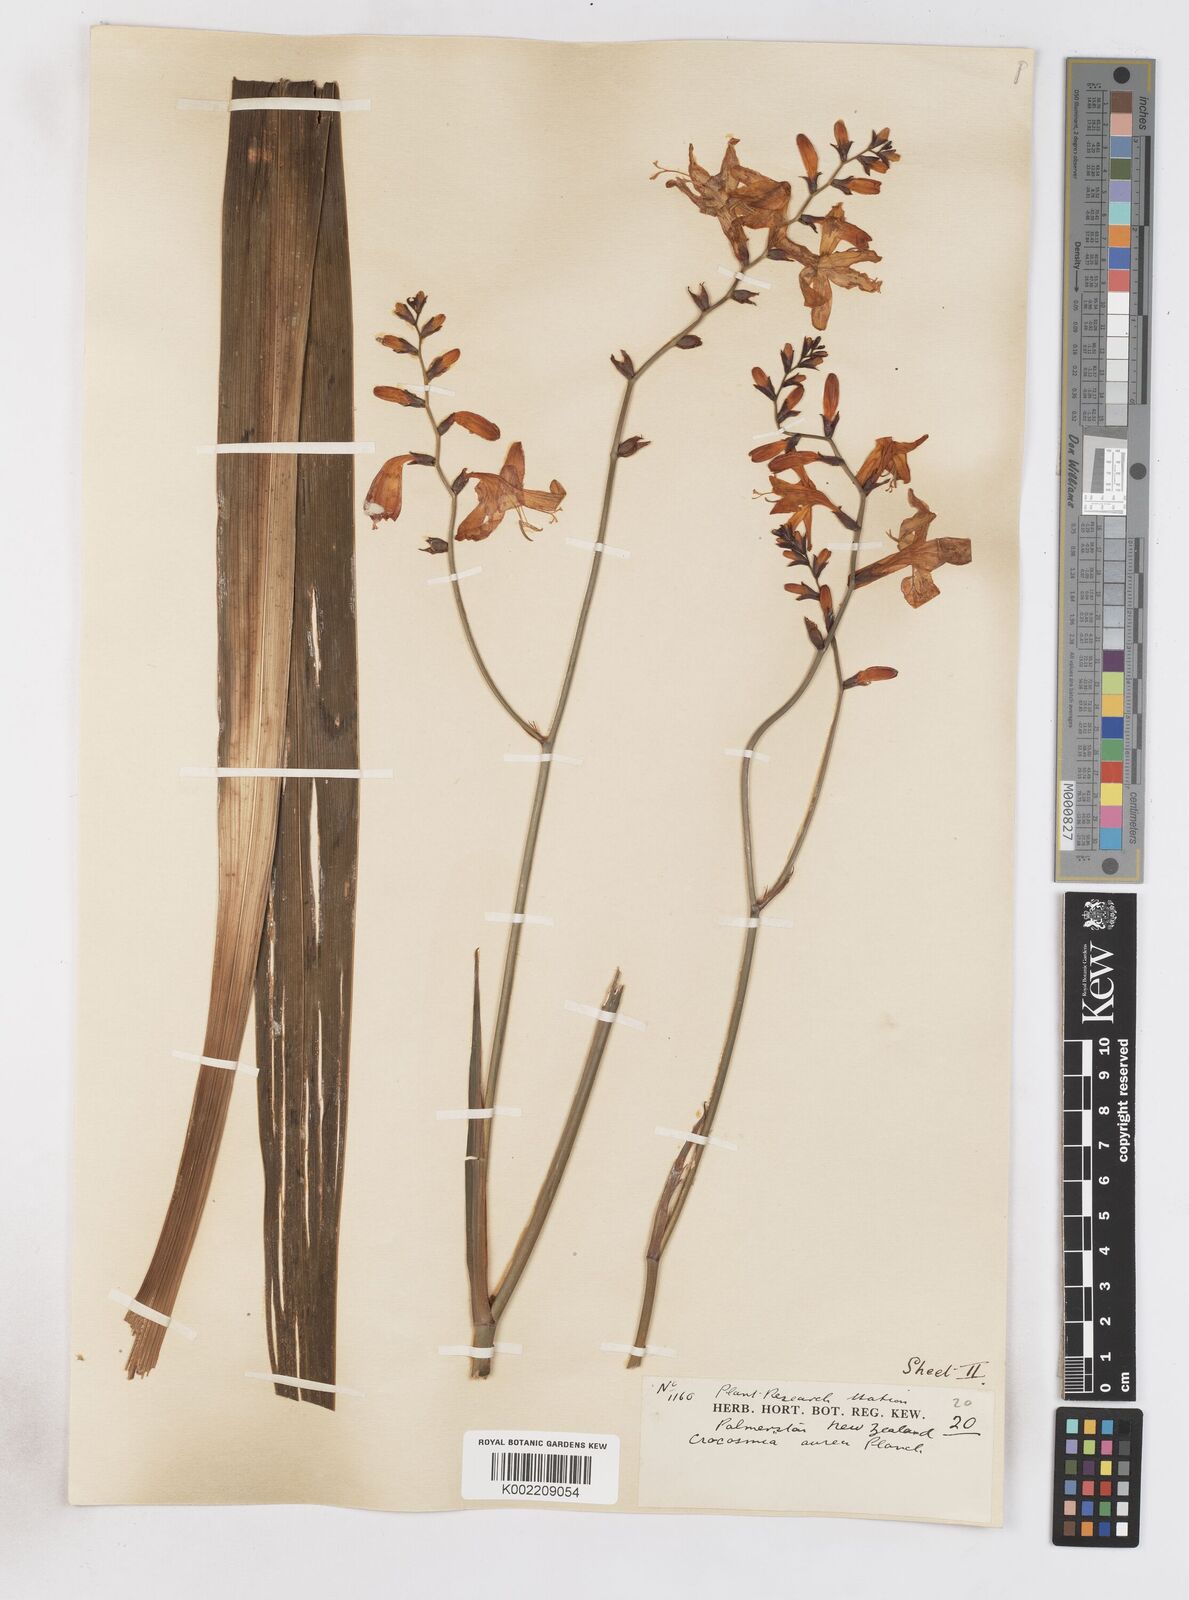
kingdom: Plantae
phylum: Tracheophyta
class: Liliopsida
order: Asparagales
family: Iridaceae
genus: Crocosmia
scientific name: Crocosmia aurea
